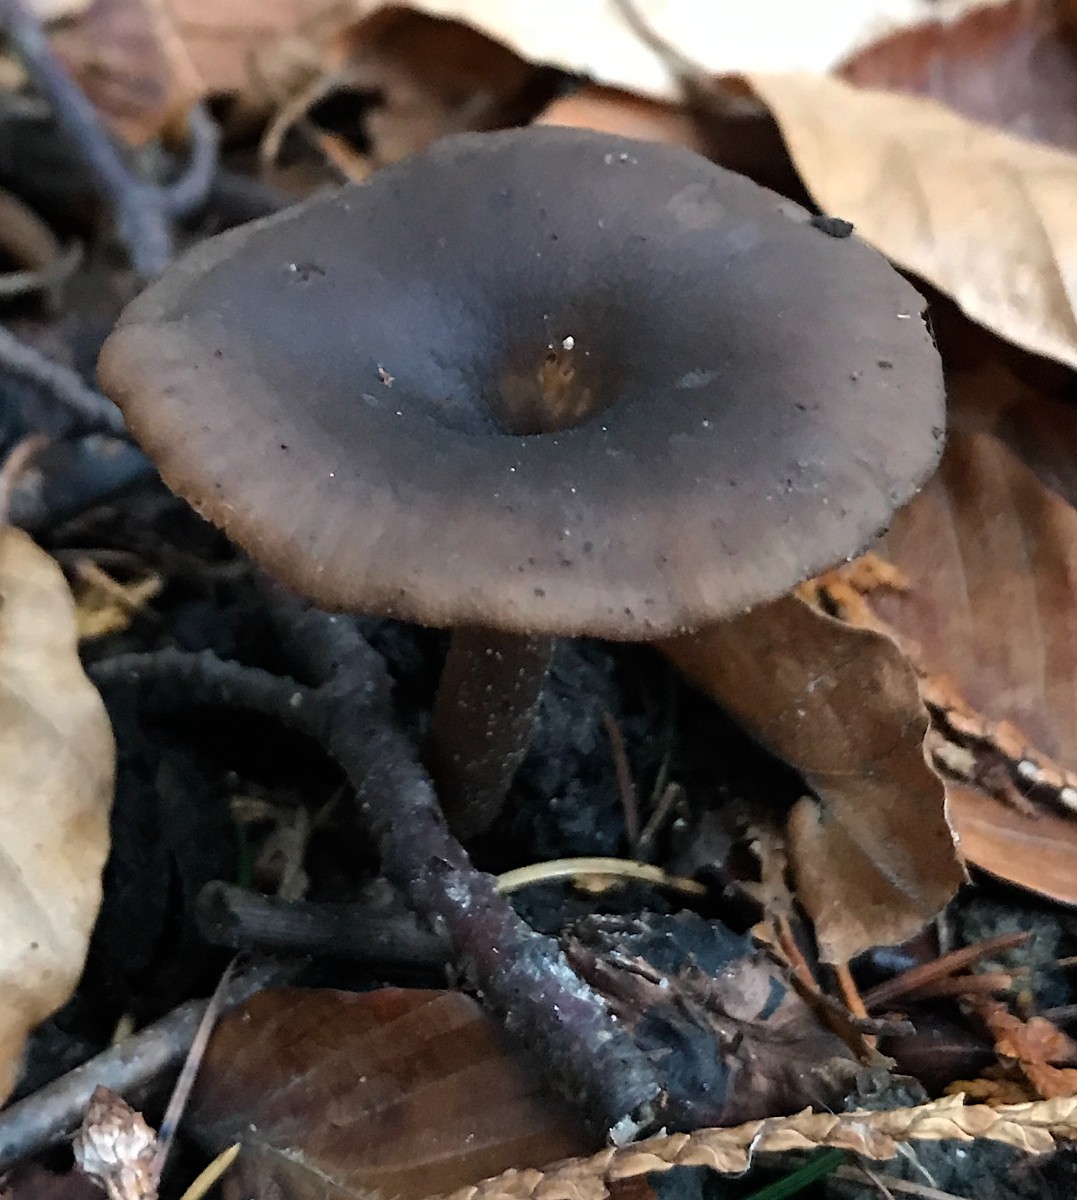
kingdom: Fungi
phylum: Basidiomycota
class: Agaricomycetes
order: Agaricales
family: Pseudoclitocybaceae
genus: Pseudoclitocybe
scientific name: Pseudoclitocybe cyathiformis
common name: almindelig bægertragthat
